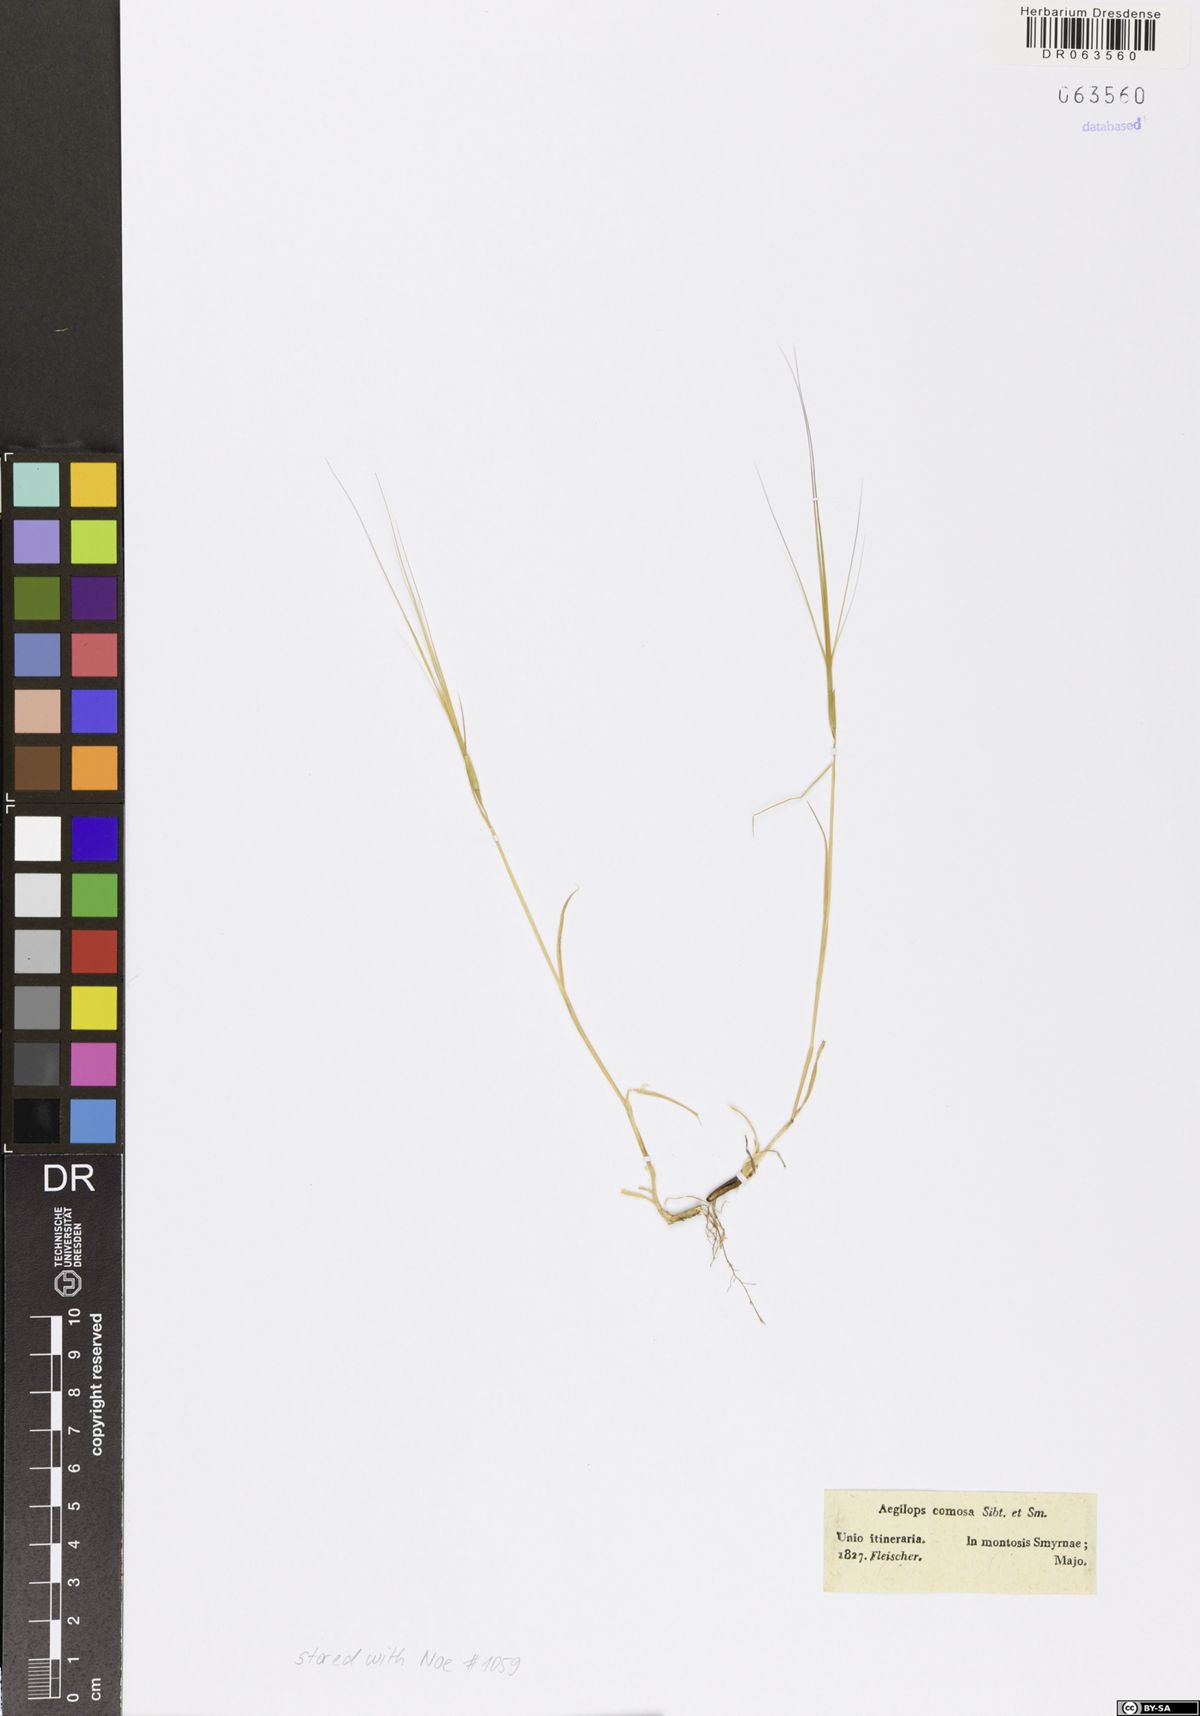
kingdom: Plantae
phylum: Tracheophyta
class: Liliopsida
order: Poales
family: Poaceae
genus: Aegilops
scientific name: Aegilops comosa
